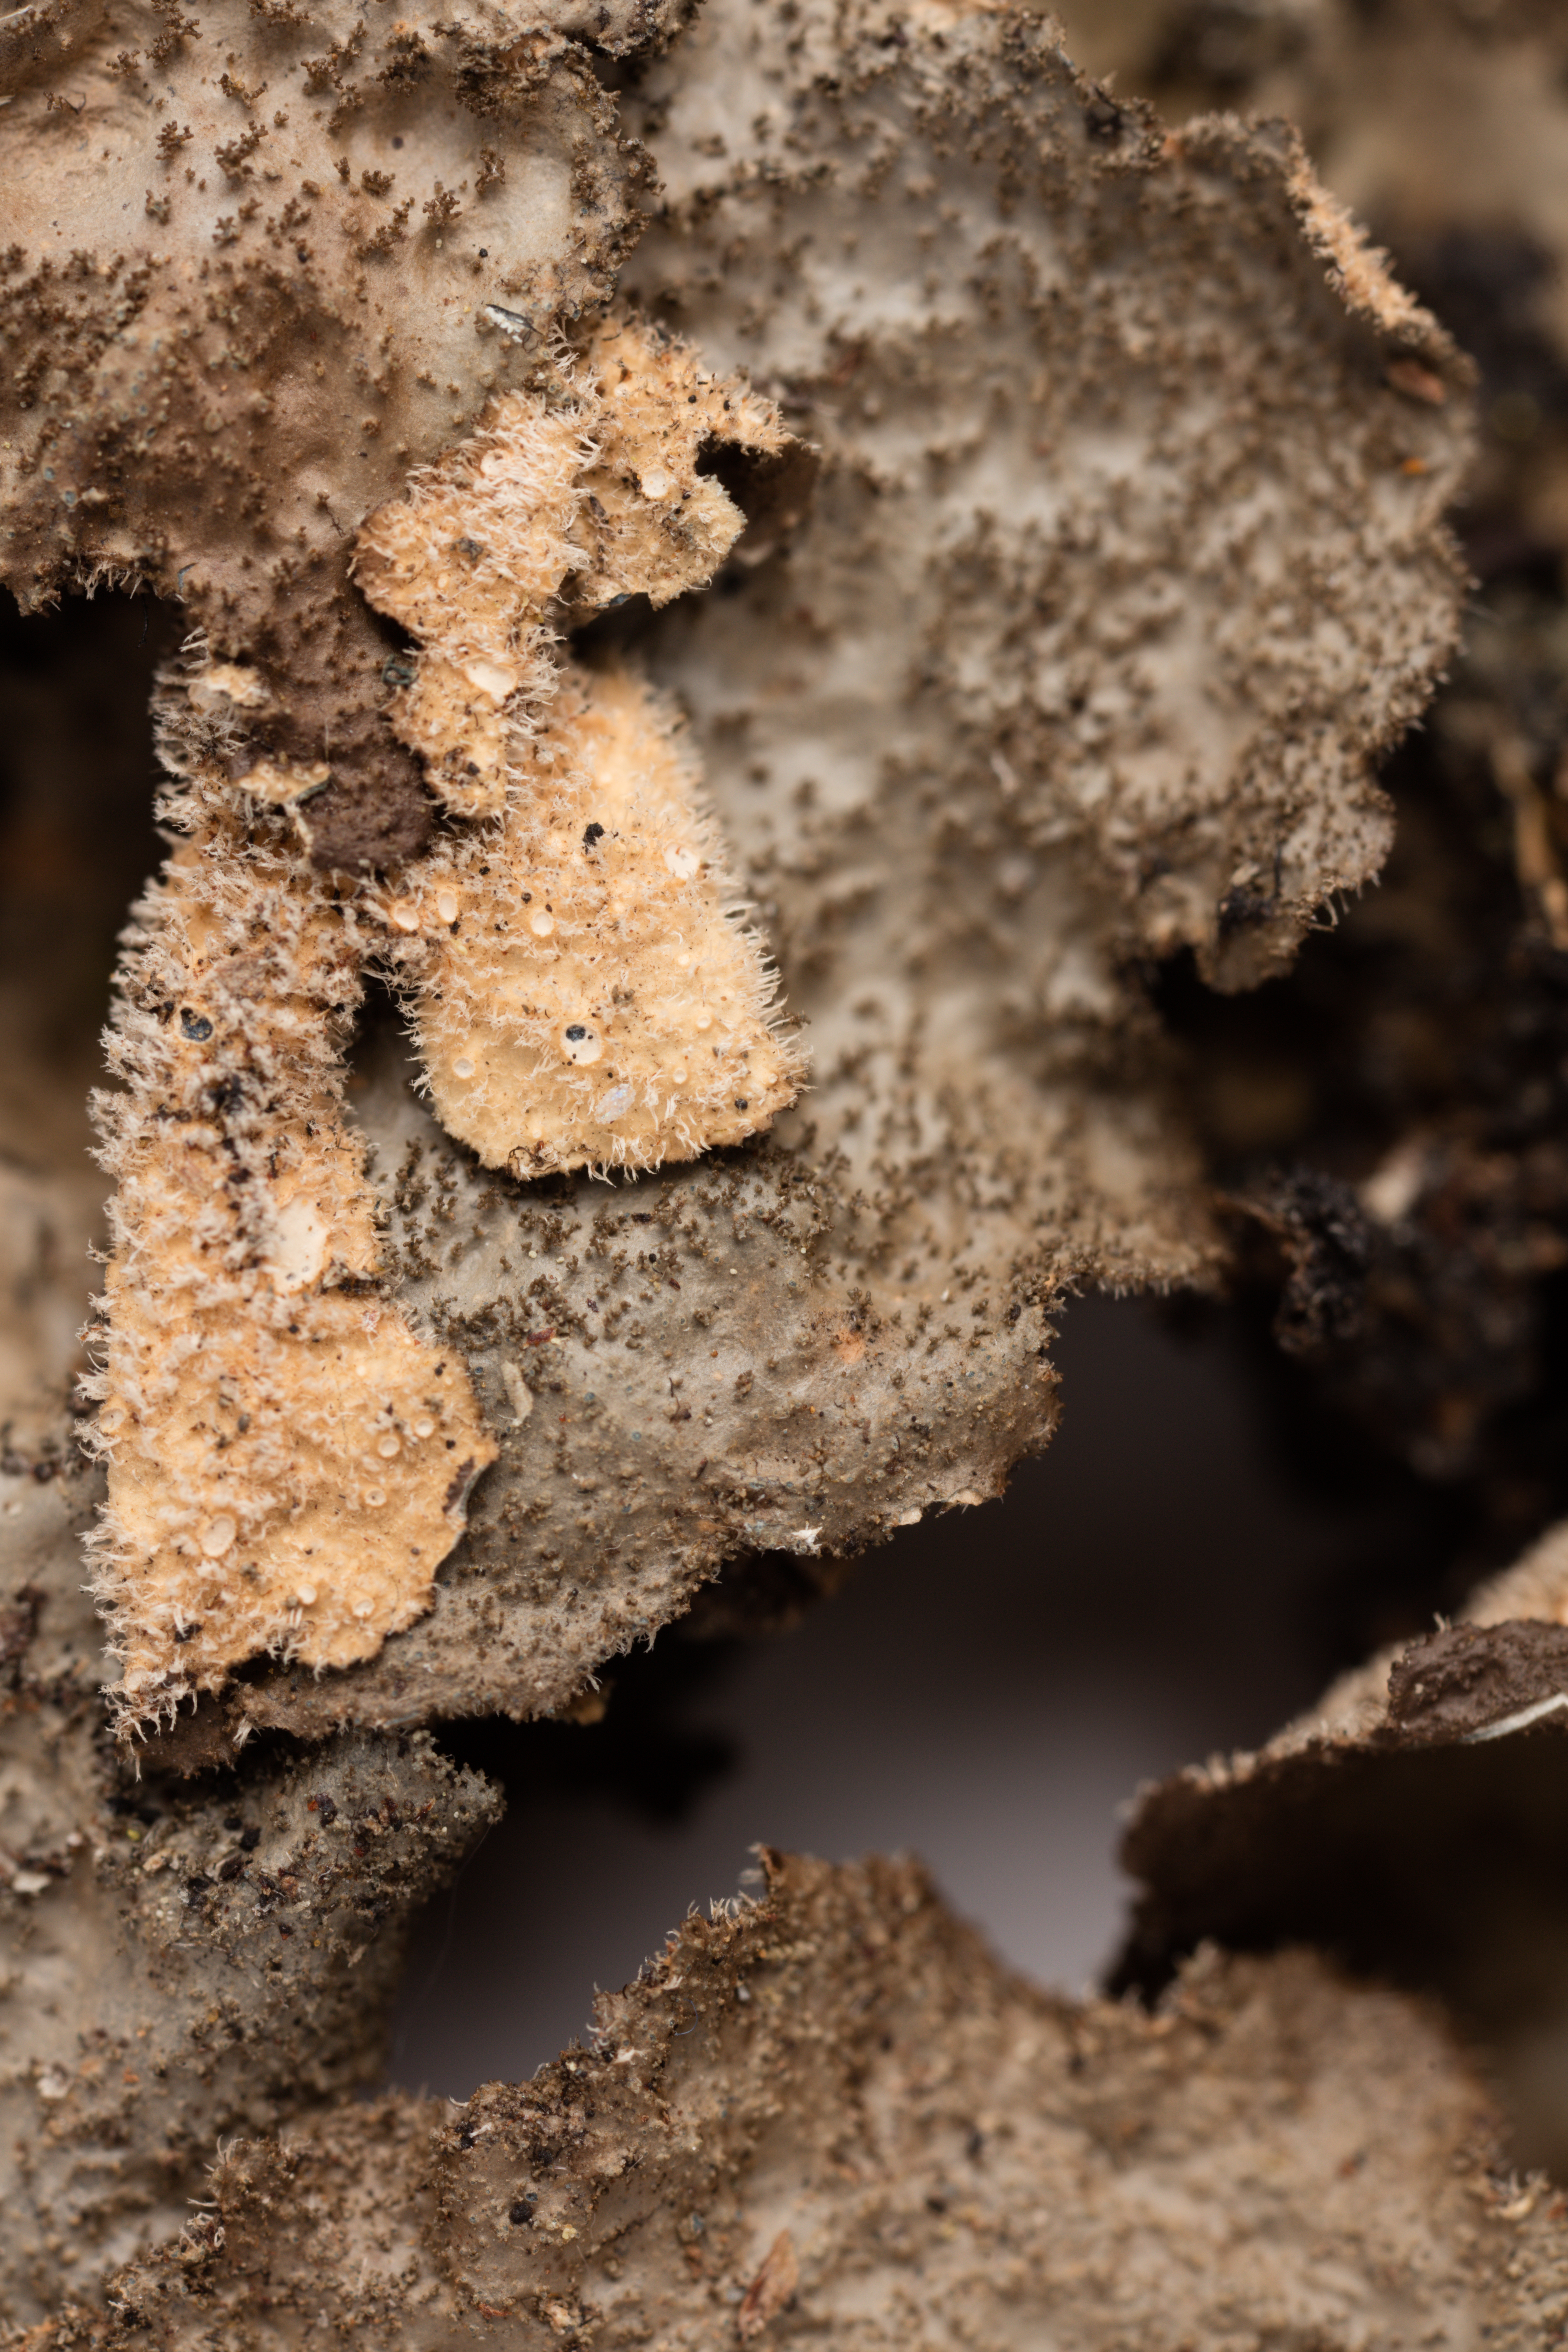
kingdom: Fungi
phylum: Ascomycota
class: Lecanoromycetes
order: Peltigerales
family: Lobariaceae
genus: Sticta
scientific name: Sticta fuliginosa
